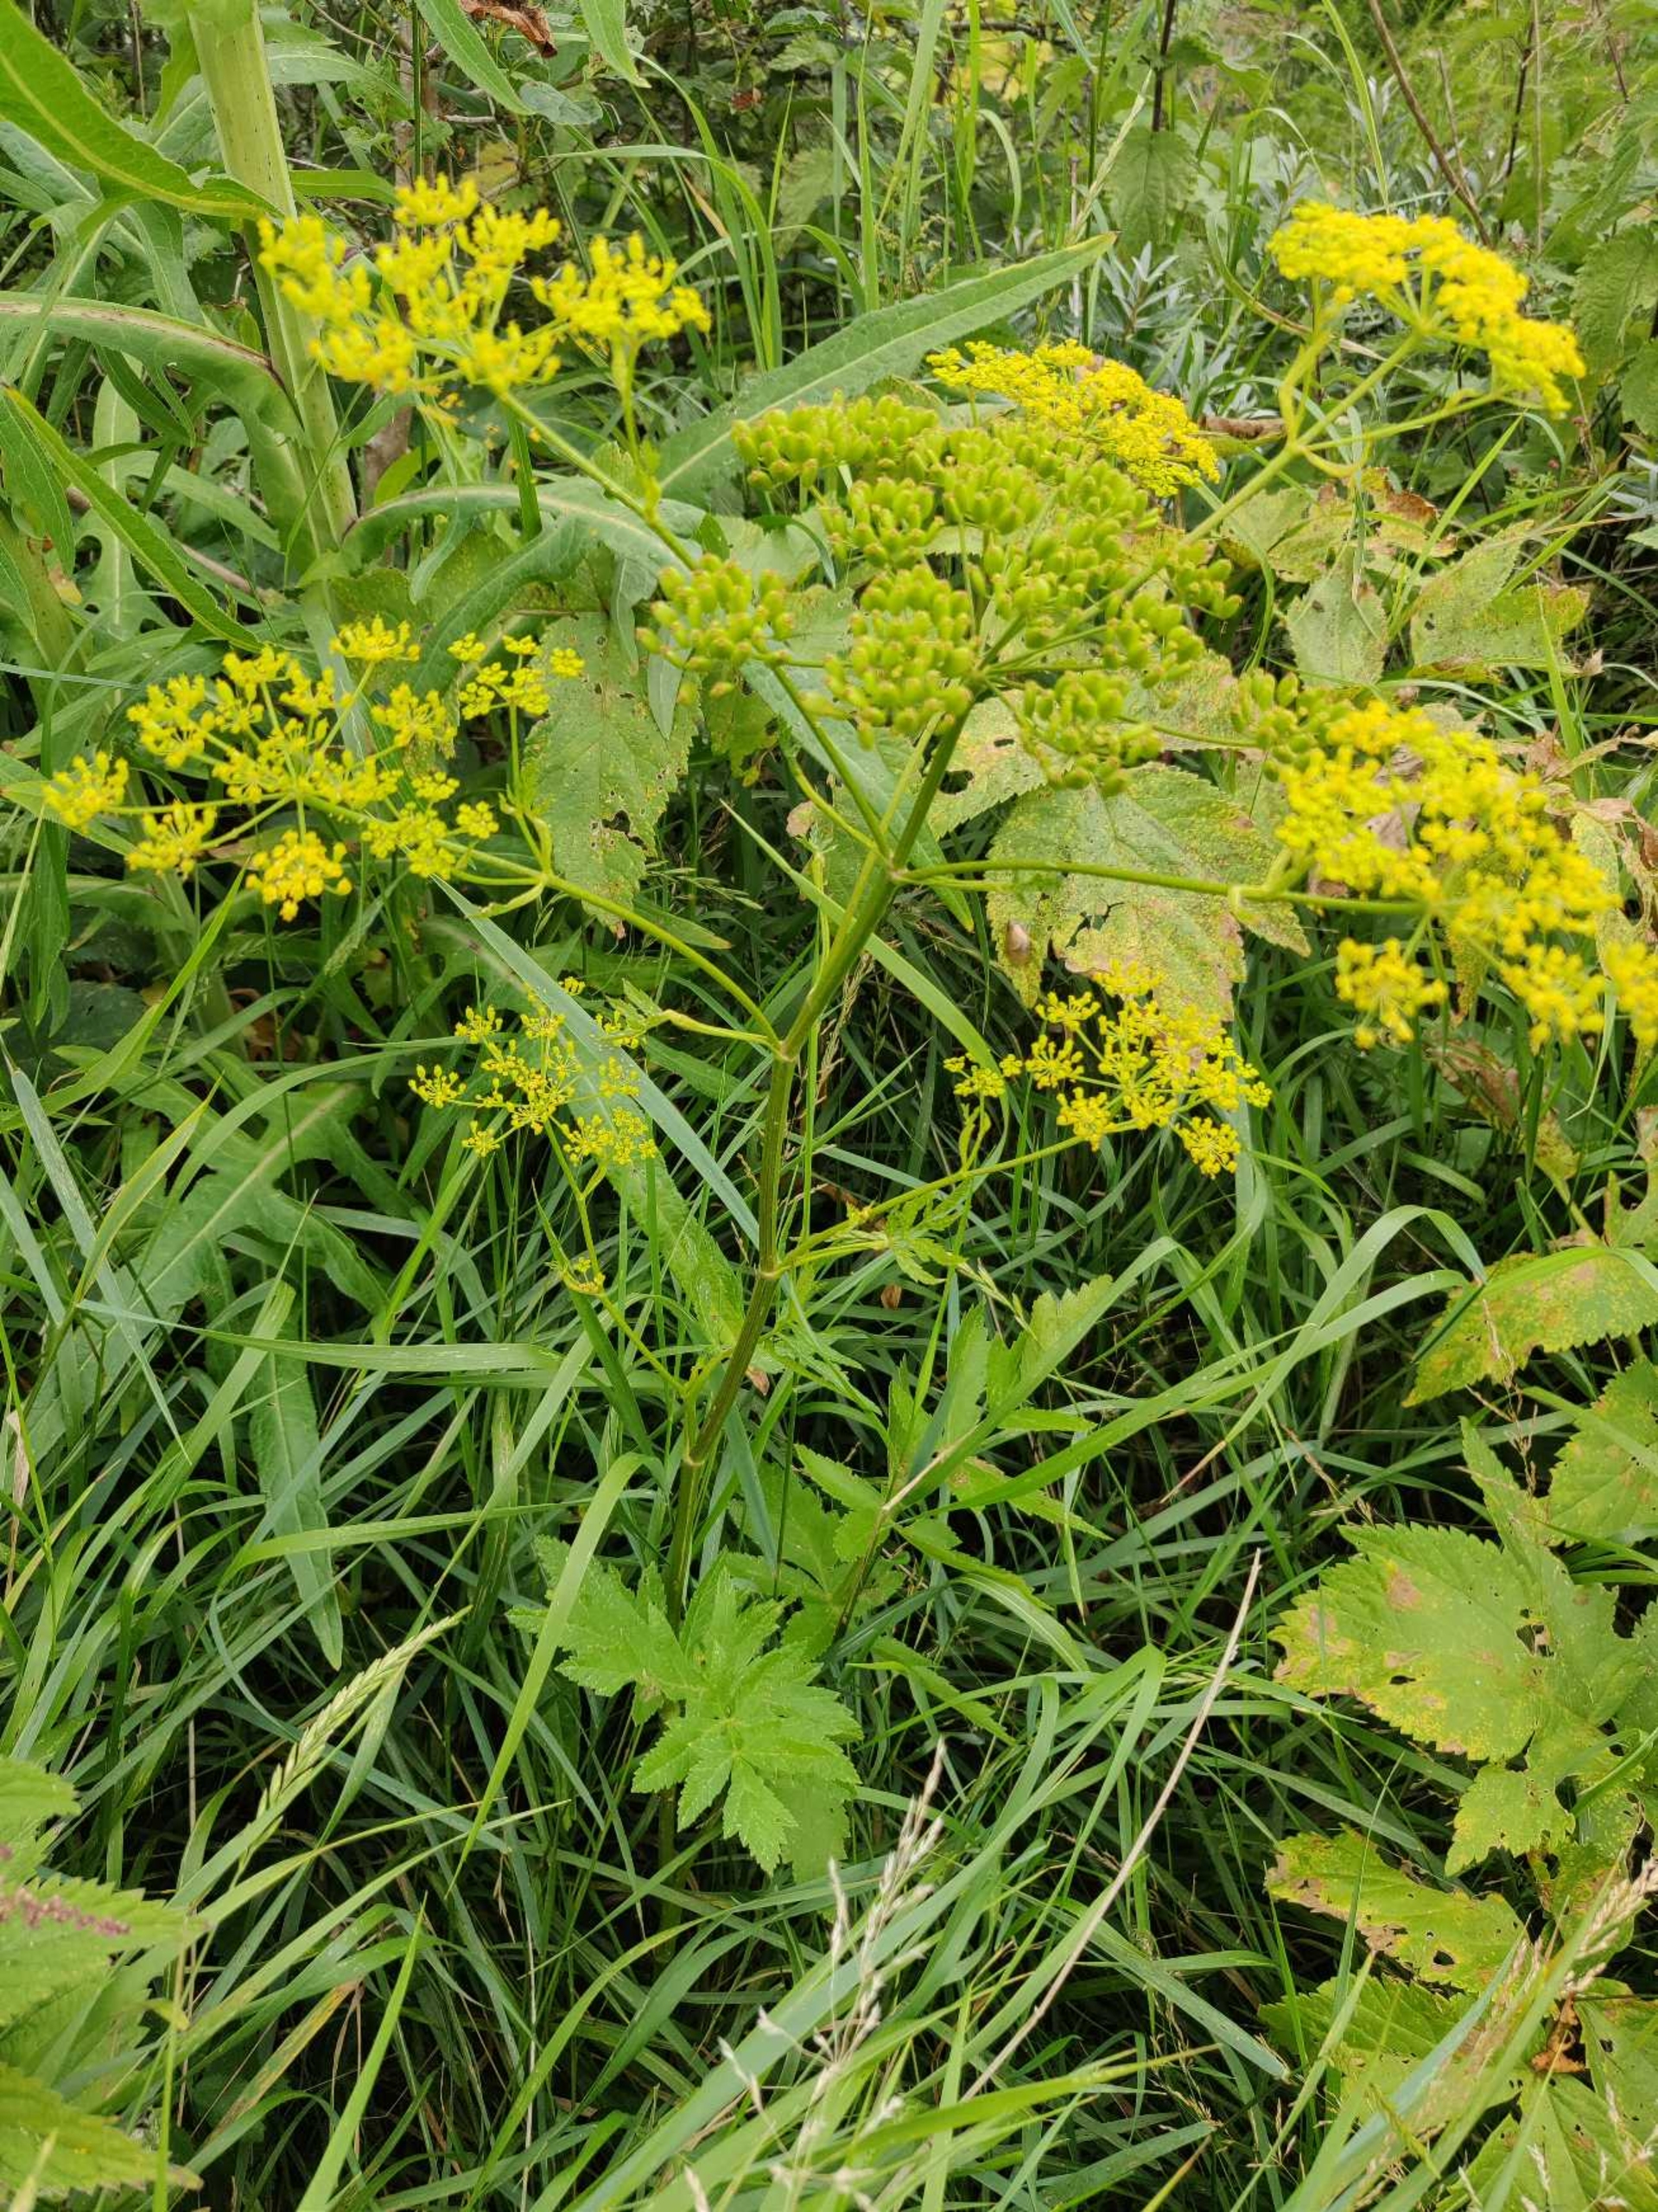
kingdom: Plantae
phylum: Tracheophyta
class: Magnoliopsida
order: Apiales
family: Apiaceae
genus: Pastinaca
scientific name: Pastinaca sativa
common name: Pastinak
